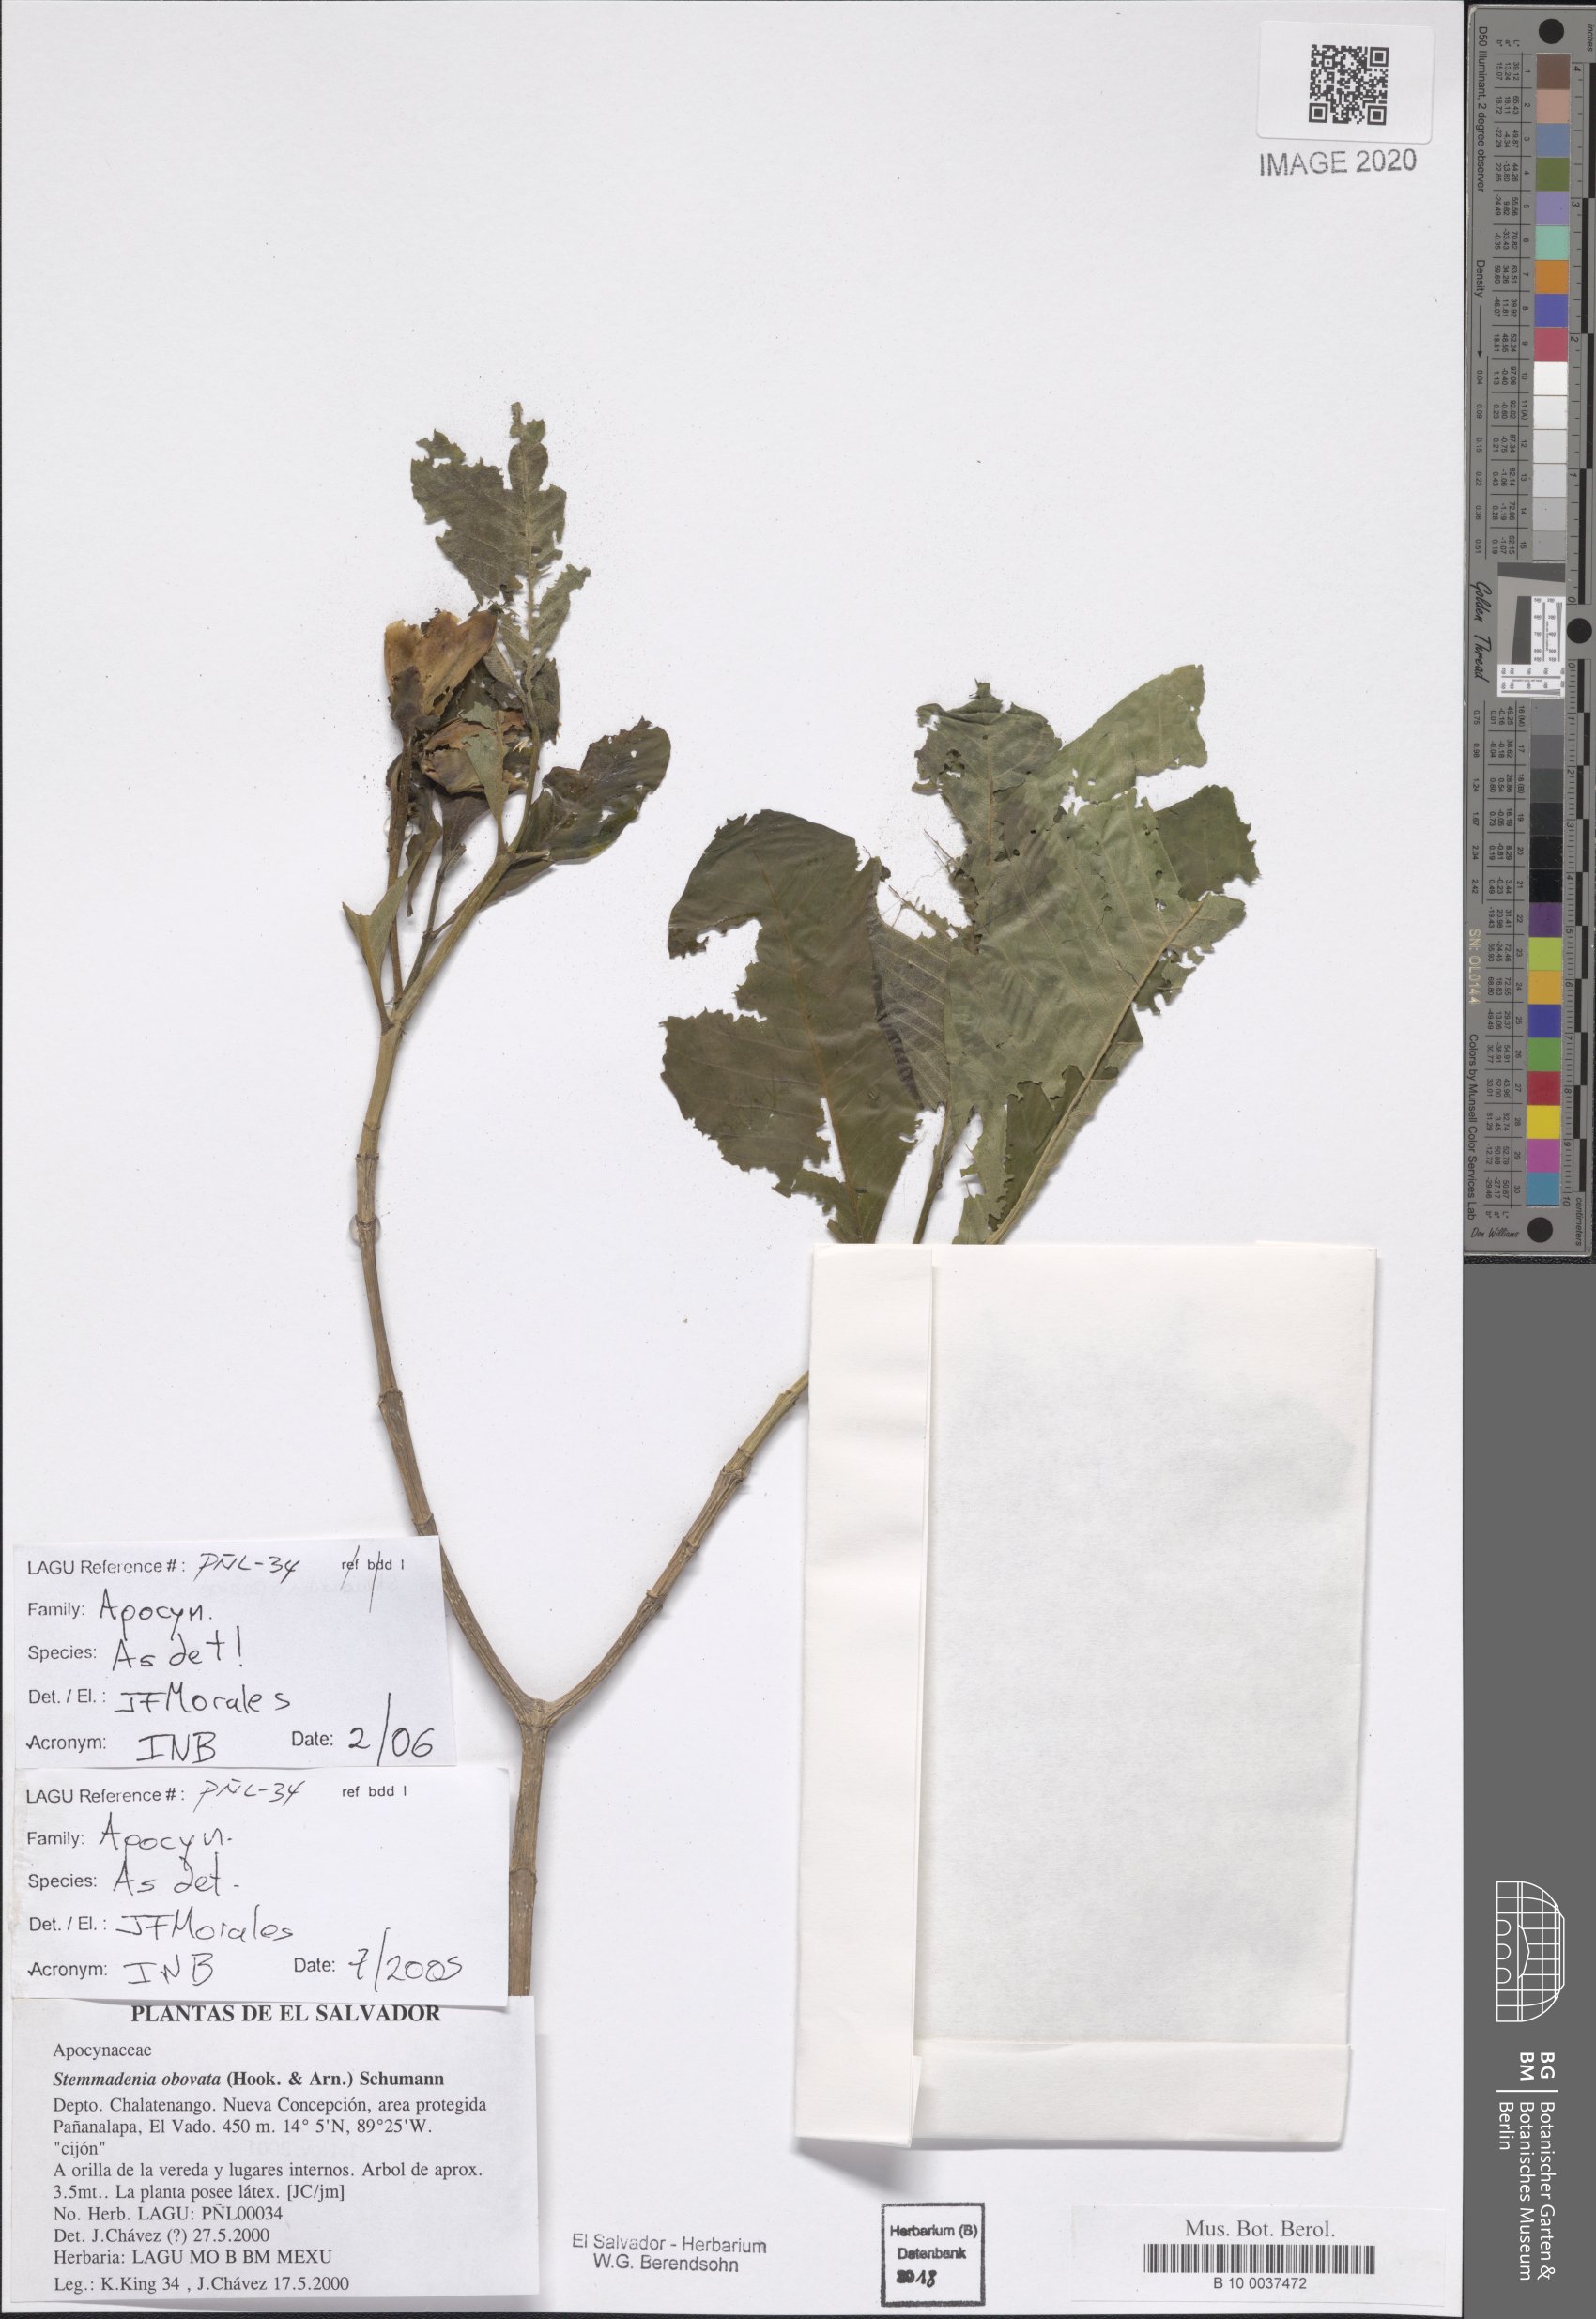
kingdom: Plantae
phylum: Tracheophyta
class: Magnoliopsida
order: Gentianales
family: Apocynaceae
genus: Tabernaemontana
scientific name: Tabernaemontana glabra
